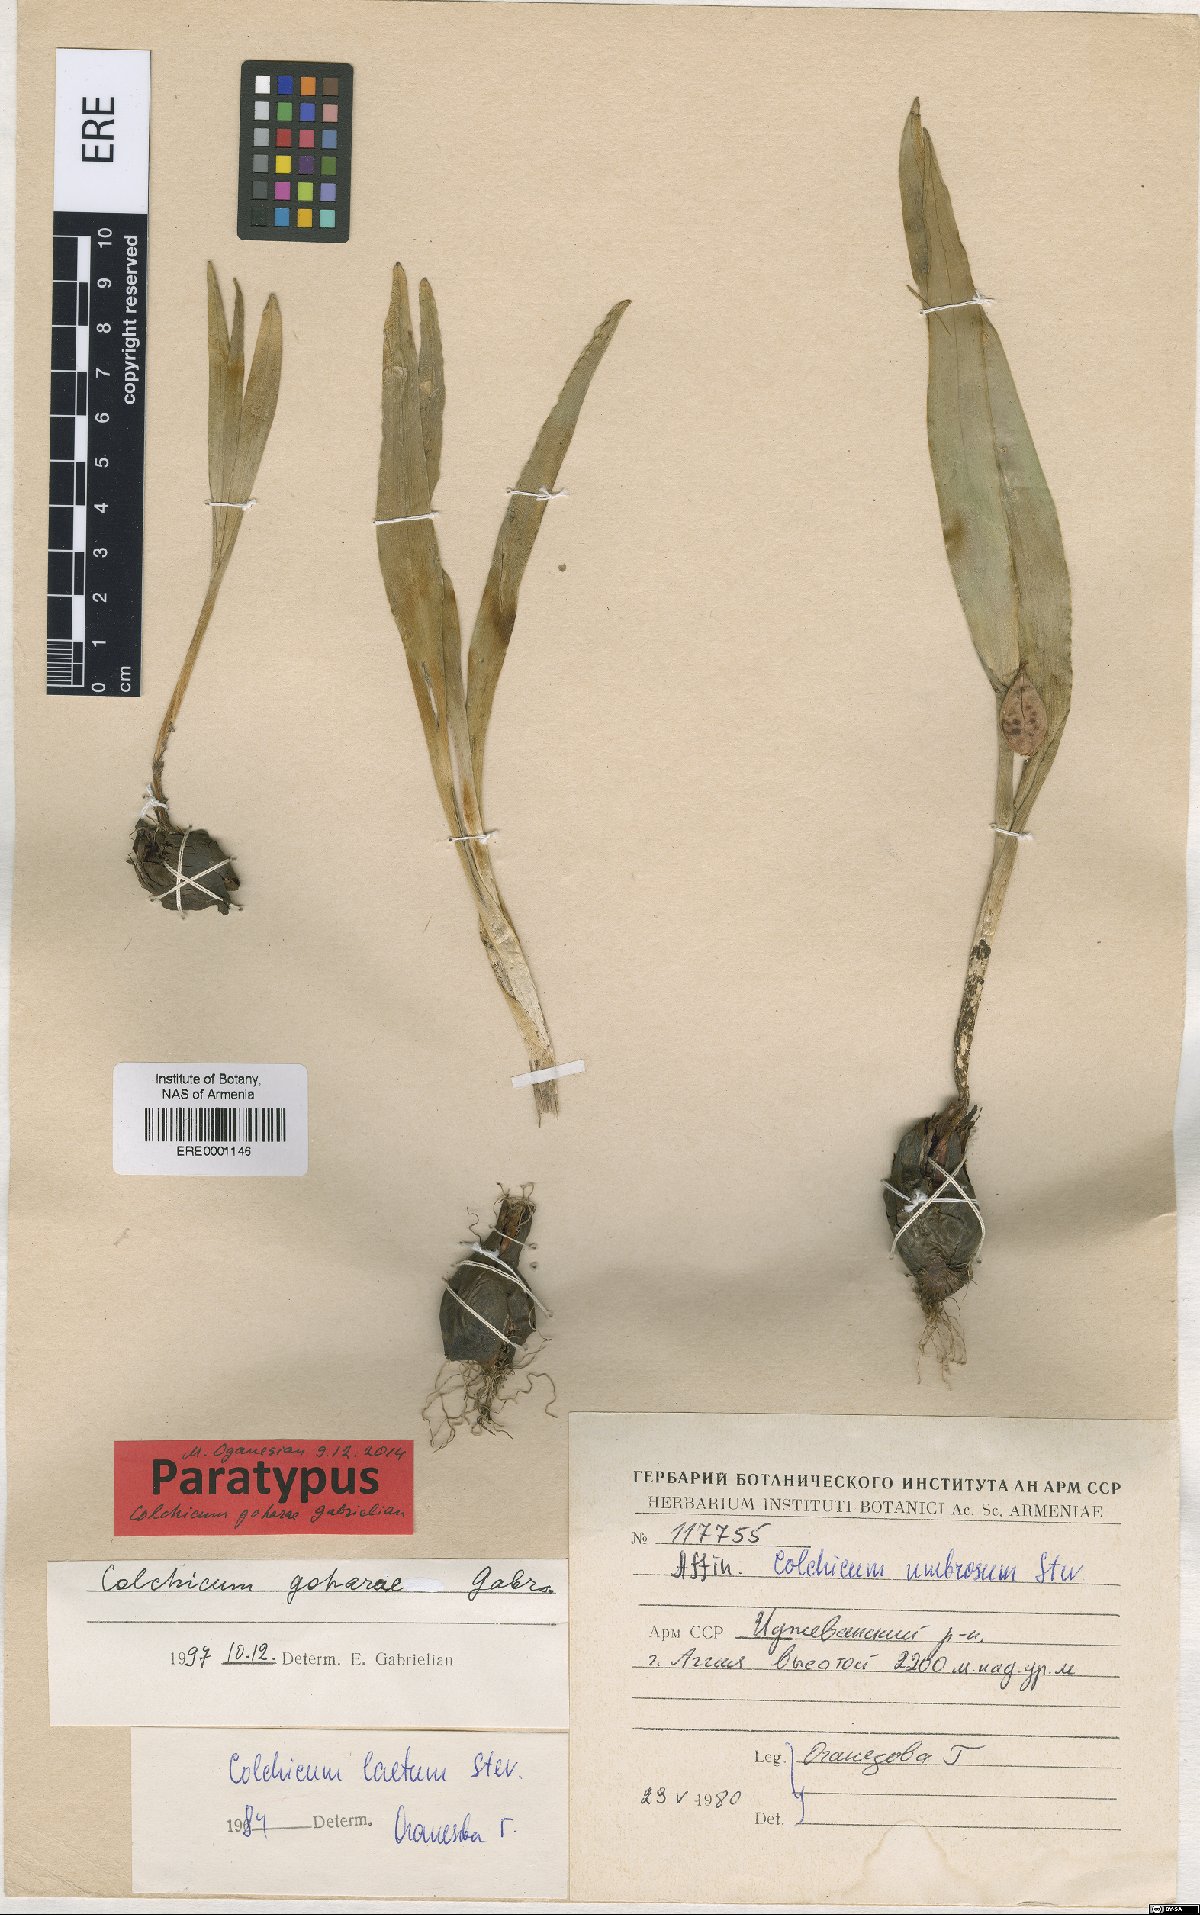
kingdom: Plantae
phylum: Tracheophyta
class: Liliopsida
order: Liliales
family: Colchicaceae
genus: Colchicum
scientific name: Colchicum szovitsii
